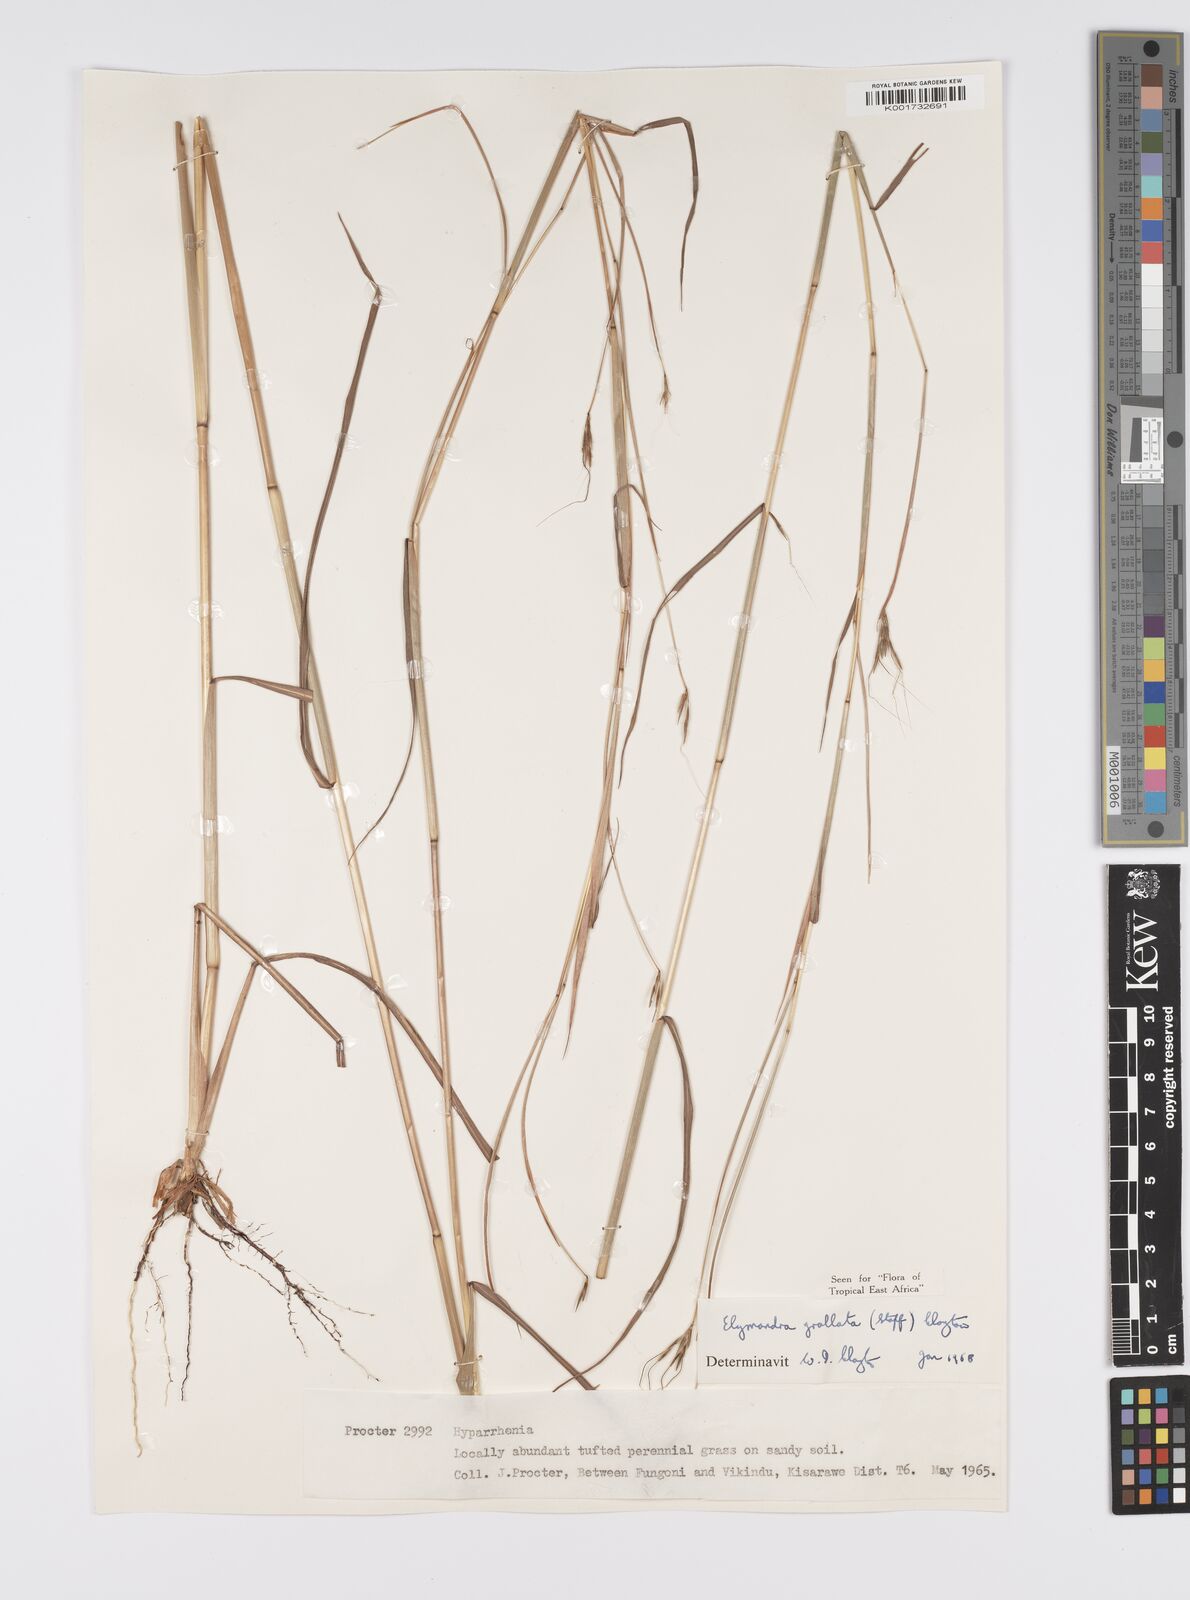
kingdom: Plantae
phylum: Tracheophyta
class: Liliopsida
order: Poales
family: Poaceae
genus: Elymandra
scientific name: Elymandra grallata
